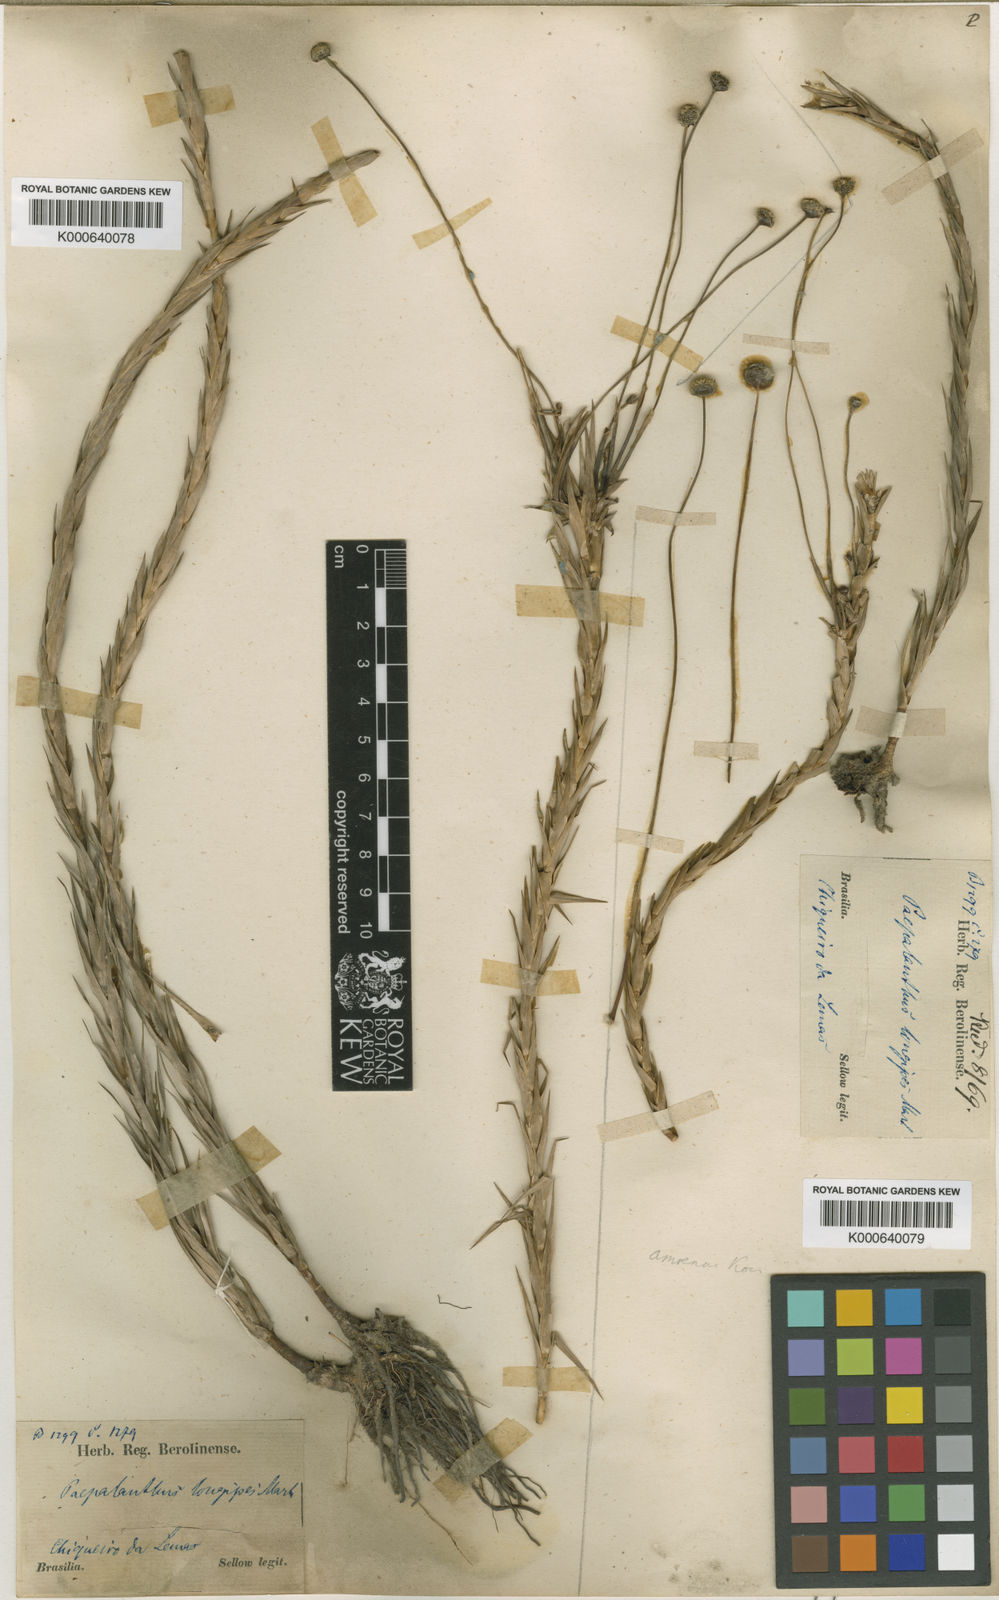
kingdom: Plantae
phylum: Tracheophyta
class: Liliopsida
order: Poales
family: Eriocaulaceae
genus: Paepalanthus
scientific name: Paepalanthus
